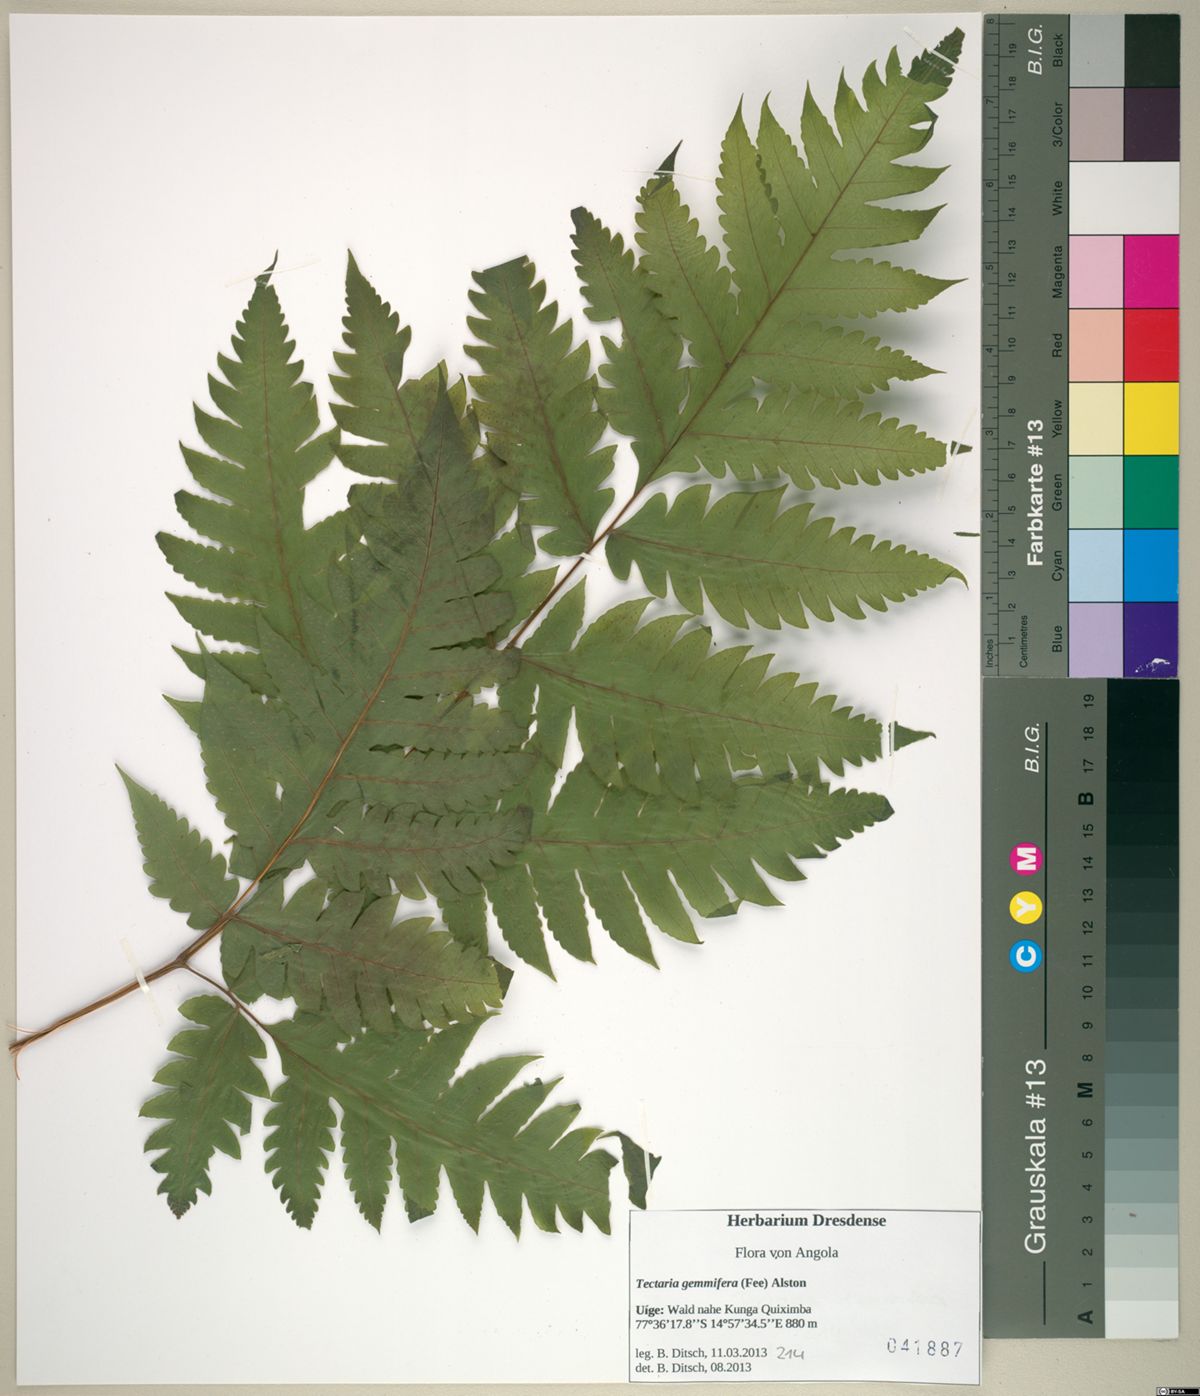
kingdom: Plantae
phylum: Tracheophyta
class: Polypodiopsida
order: Polypodiales
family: Tectariaceae
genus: Tectaria
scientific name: Tectaria gemmifera
